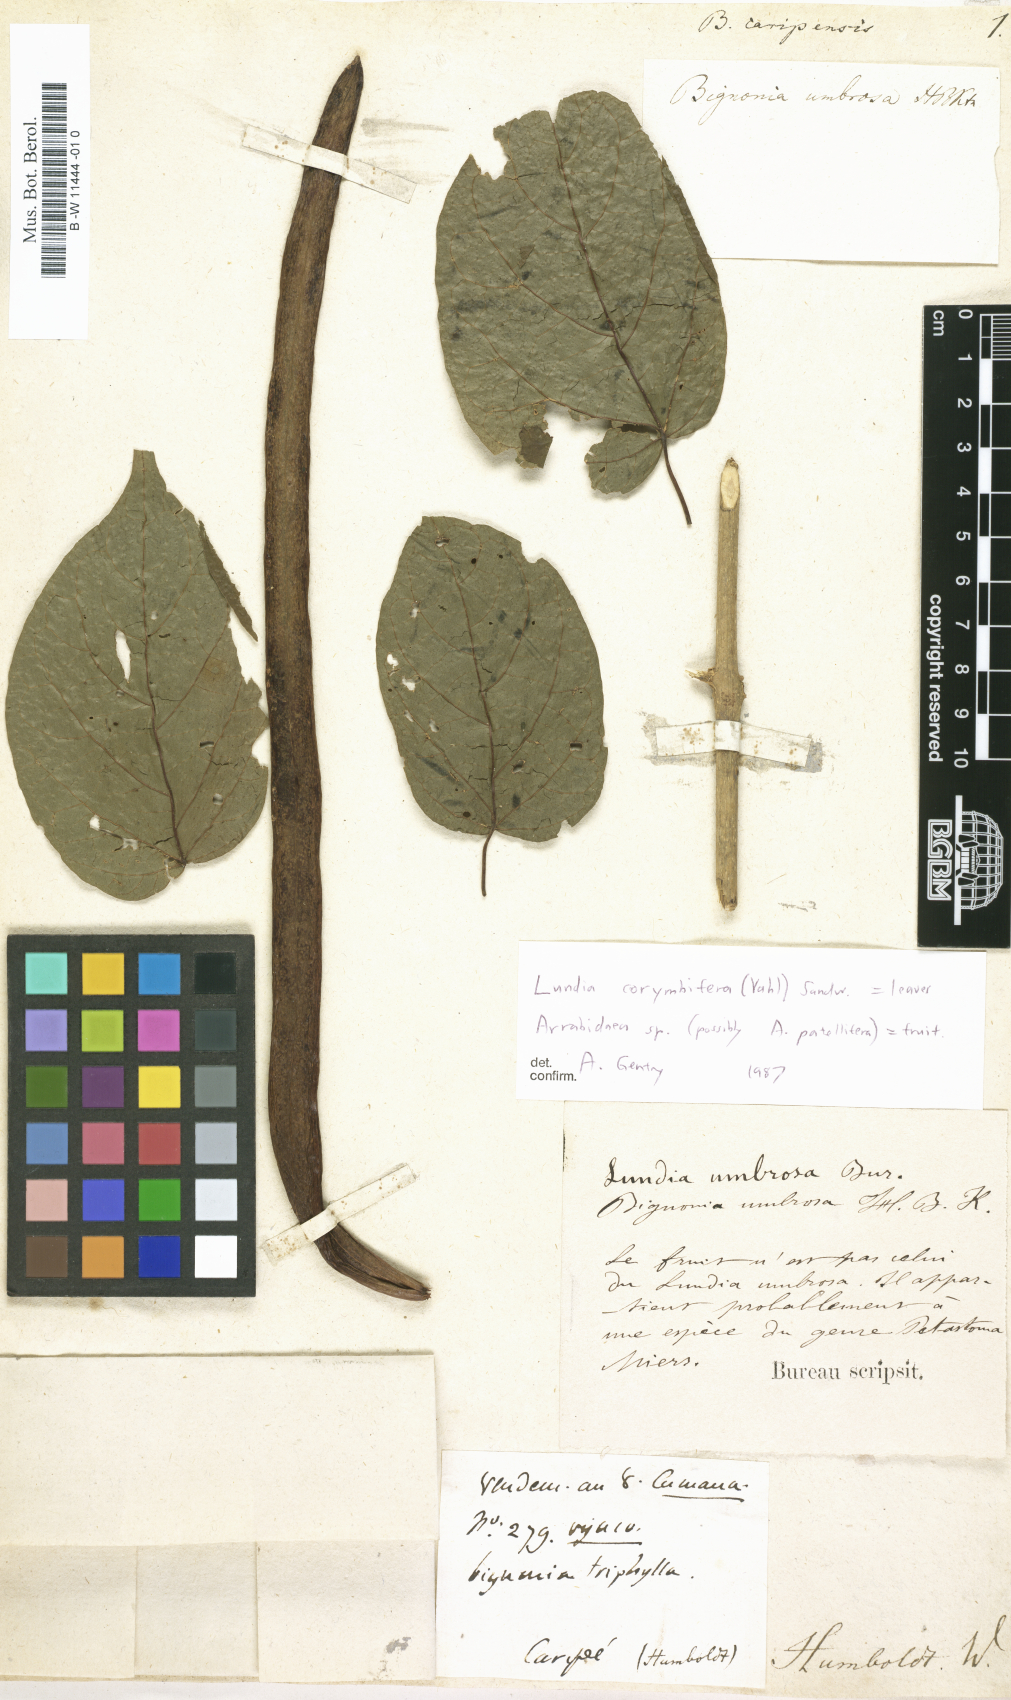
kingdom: Plantae
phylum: Tracheophyta
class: Magnoliopsida
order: Lamiales
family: Bignoniaceae
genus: Bignonia
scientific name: Bignonia cararensis
